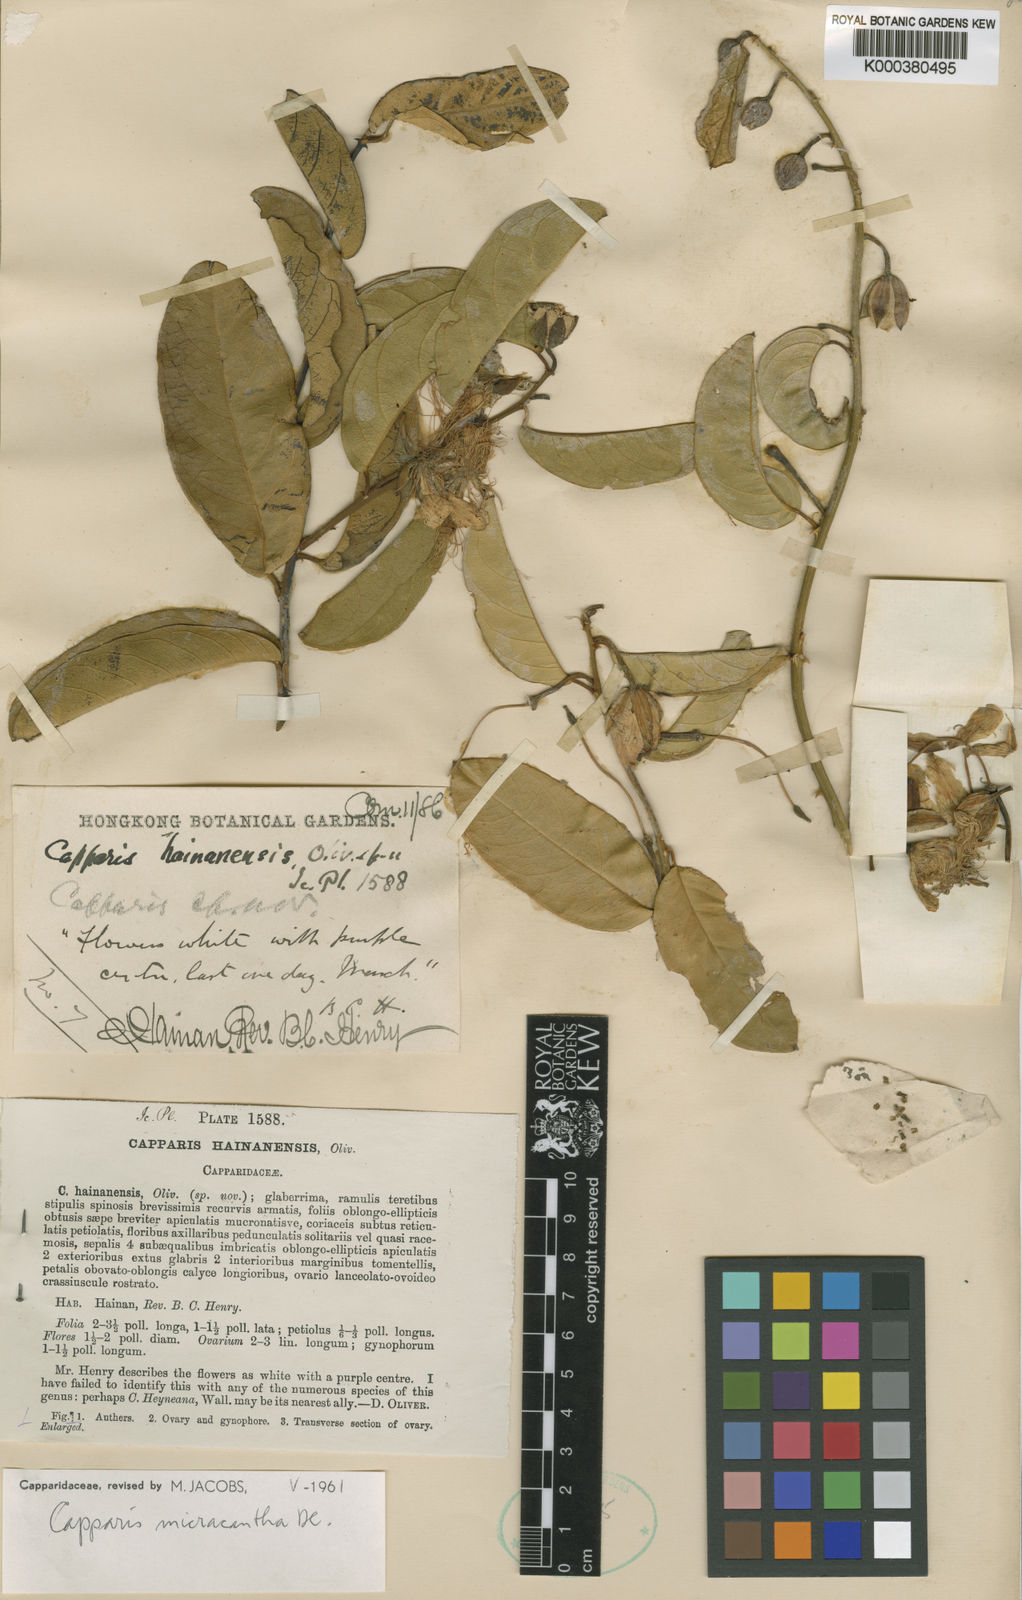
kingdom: Plantae
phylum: Tracheophyta
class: Magnoliopsida
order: Brassicales
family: Capparaceae
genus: Capparis
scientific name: Capparis micrantha
